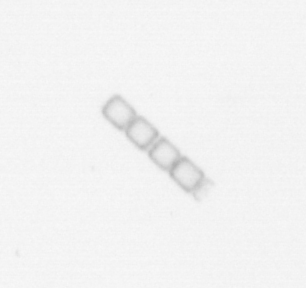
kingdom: Chromista
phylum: Ochrophyta
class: Bacillariophyceae
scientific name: Bacillariophyceae
